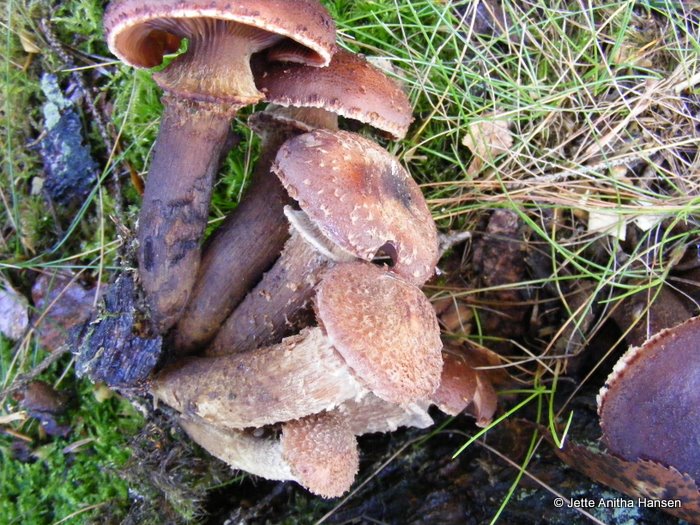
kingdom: Fungi
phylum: Basidiomycota
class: Agaricomycetes
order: Agaricales
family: Physalacriaceae
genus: Armillaria
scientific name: Armillaria ostoyae
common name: mørk honningsvamp
